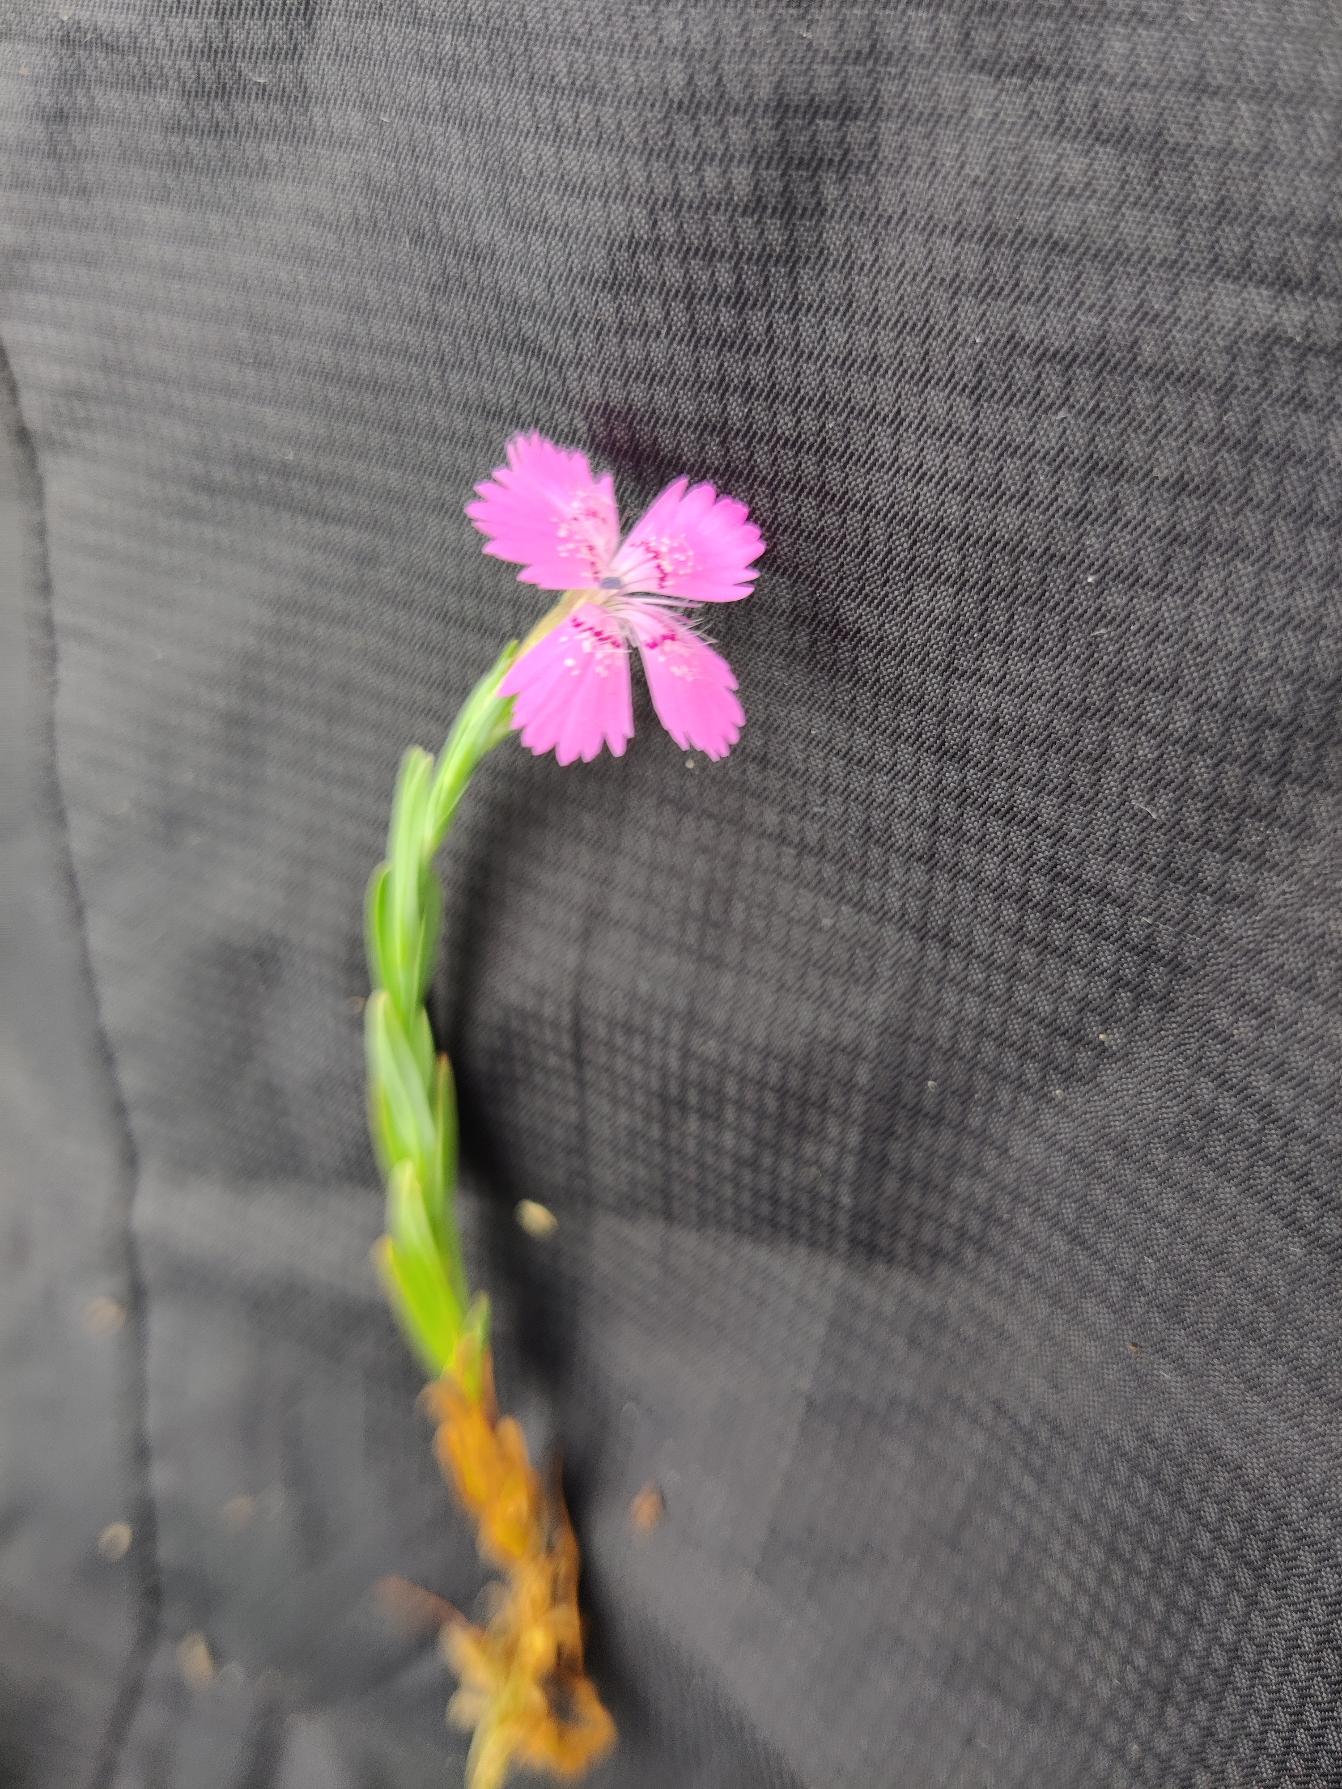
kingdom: Plantae
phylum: Tracheophyta
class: Magnoliopsida
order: Caryophyllales
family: Caryophyllaceae
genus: Dianthus
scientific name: Dianthus deltoides
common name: Bakke-nellike
